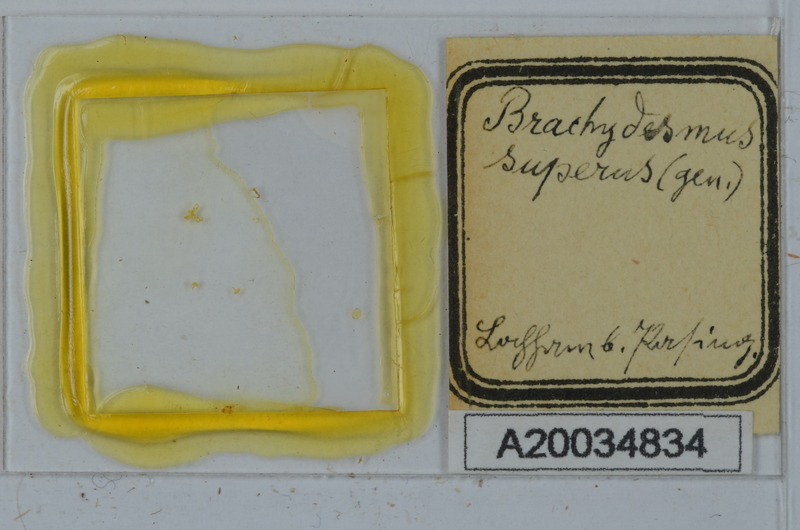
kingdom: Animalia
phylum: Arthropoda
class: Diplopoda
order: Polydesmida
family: Polydesmidae
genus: Brachydesmus
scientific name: Brachydesmus superus
